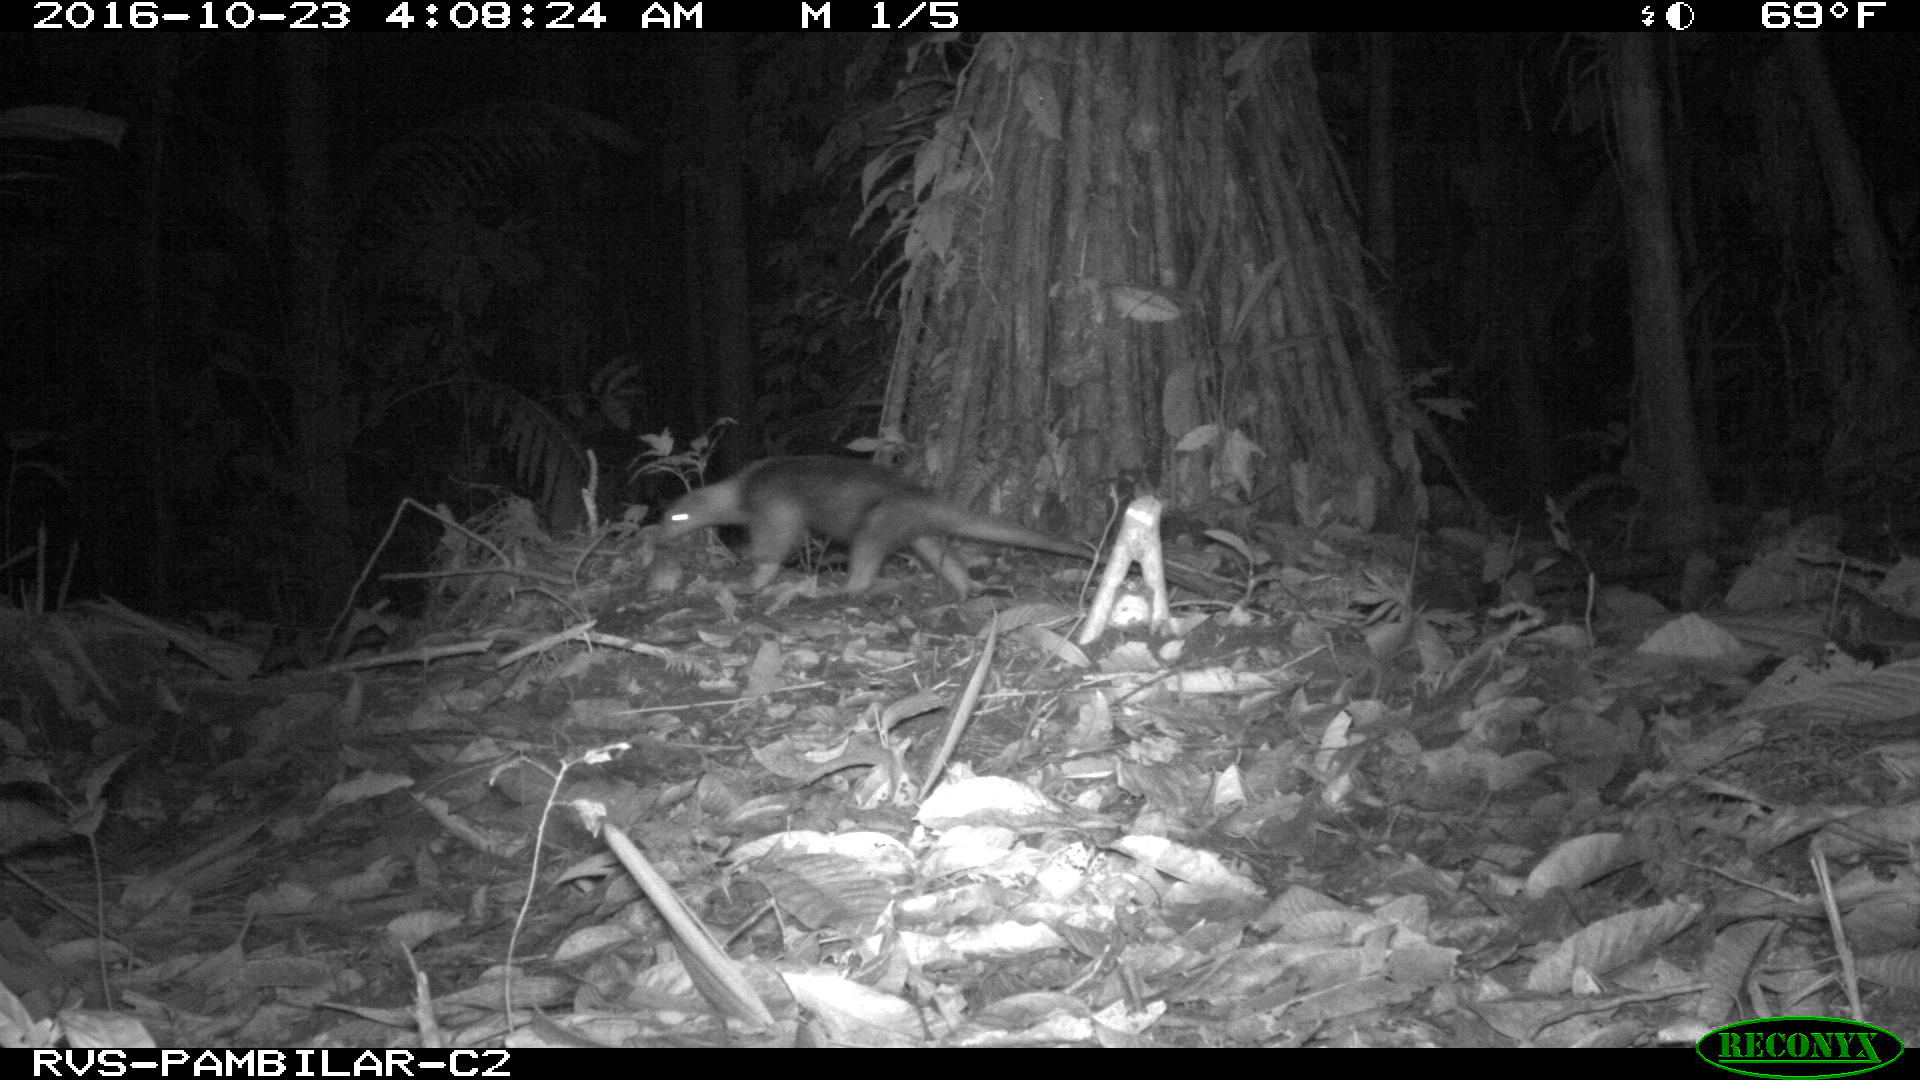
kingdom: Animalia
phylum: Chordata
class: Mammalia
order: Pilosa
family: Myrmecophagidae
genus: Tamandua
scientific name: Tamandua mexicana
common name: Northern tamandua
